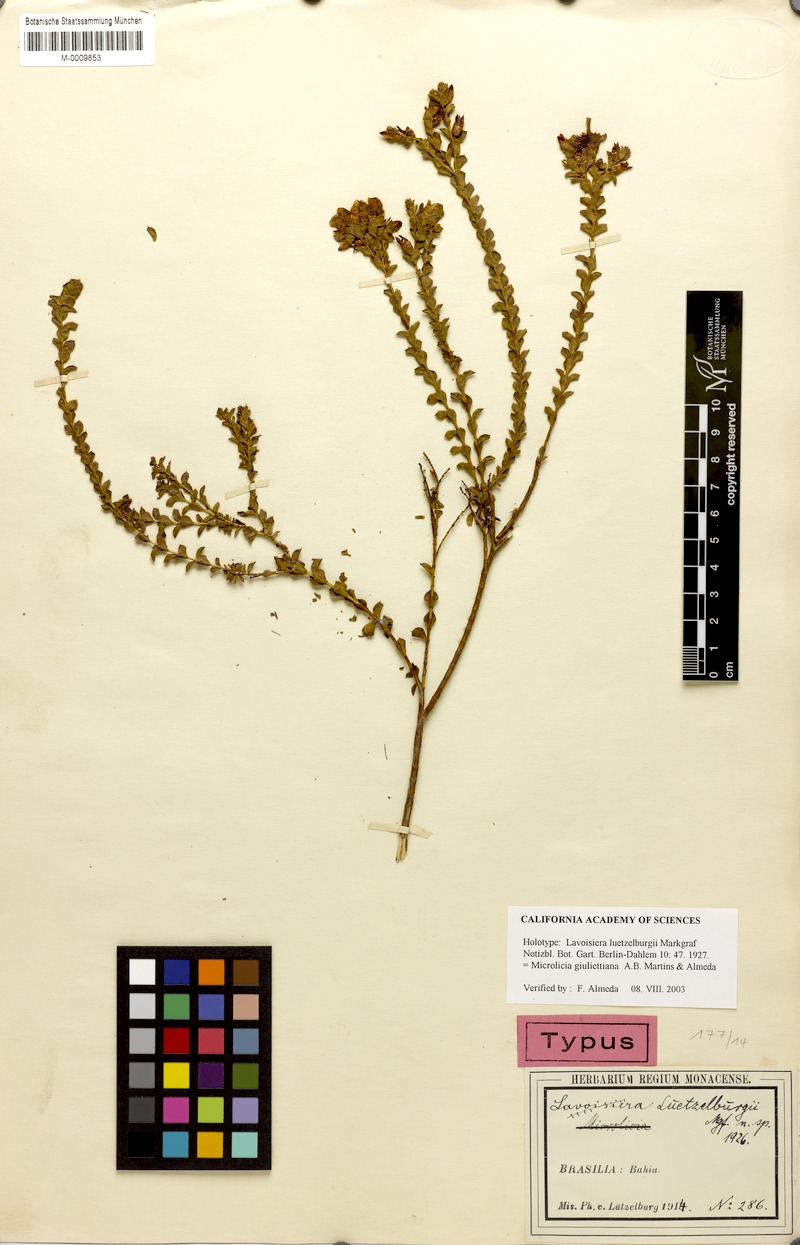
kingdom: Plantae
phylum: Tracheophyta
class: Magnoliopsida
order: Myrtales
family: Melastomataceae
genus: Microlicia
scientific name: Microlicia giuliettiana
